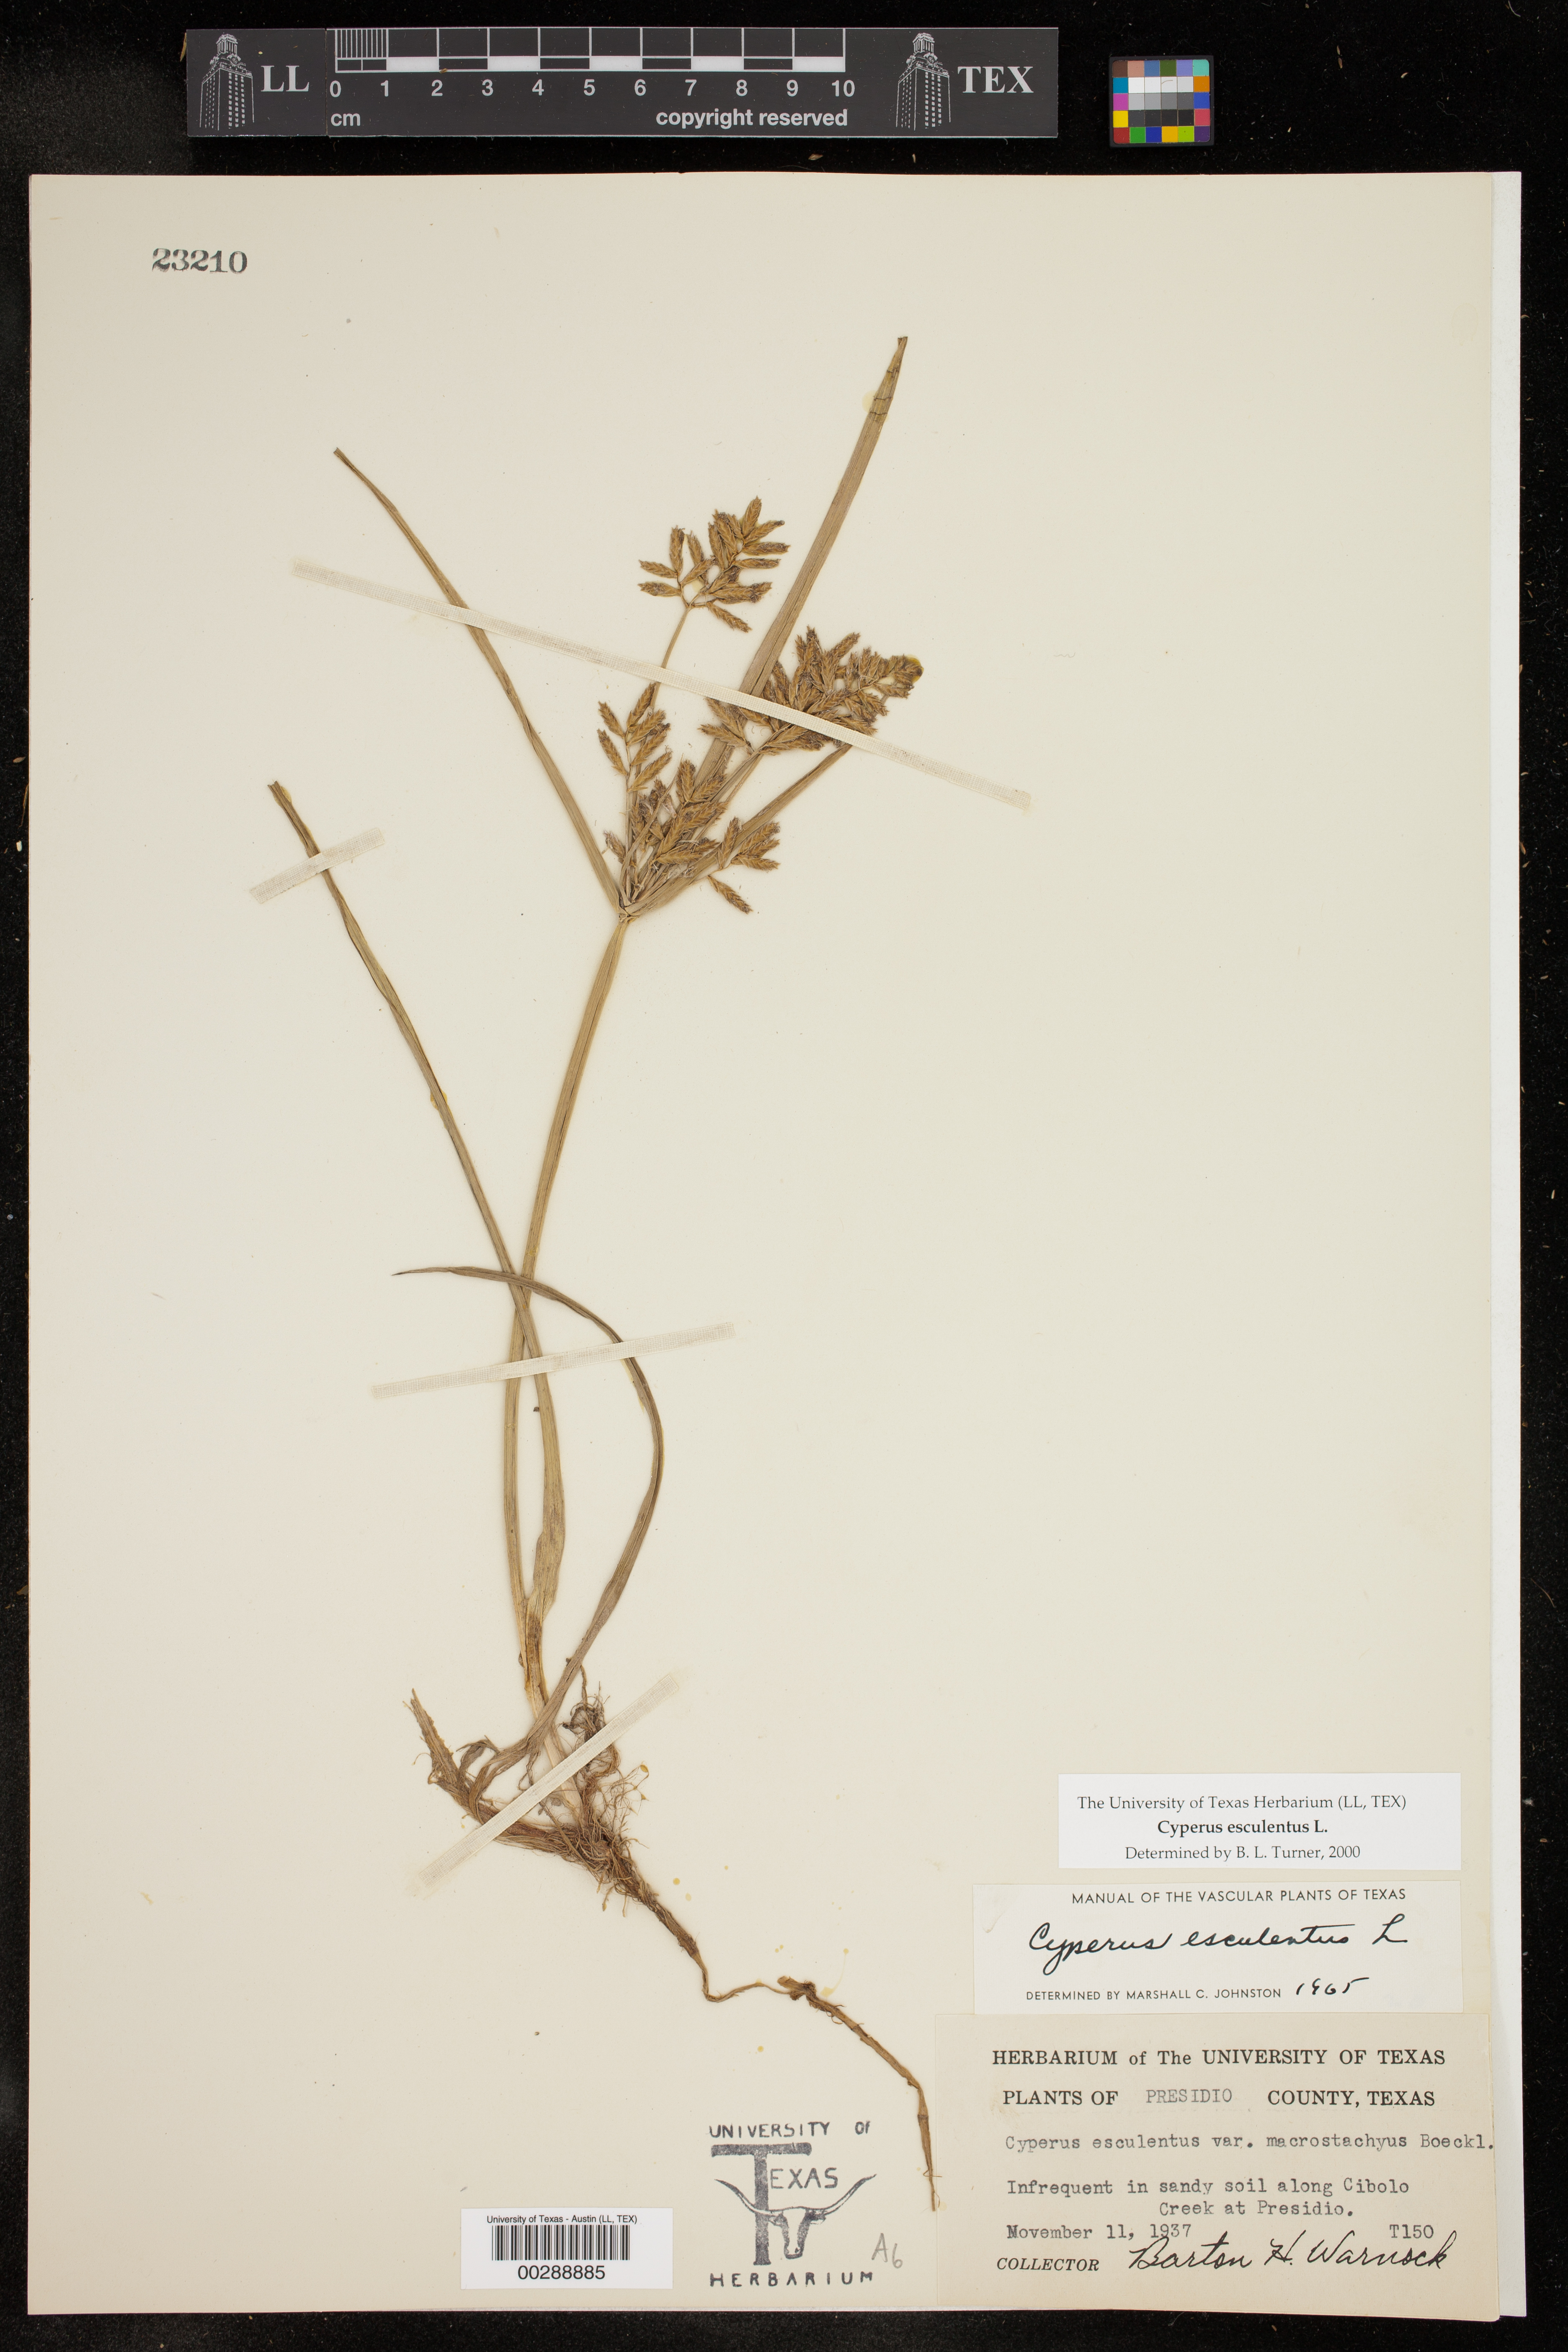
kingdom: Plantae
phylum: Tracheophyta
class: Liliopsida
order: Poales
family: Cyperaceae
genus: Cyperus
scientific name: Cyperus esculentus
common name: Yellow nutsedge
